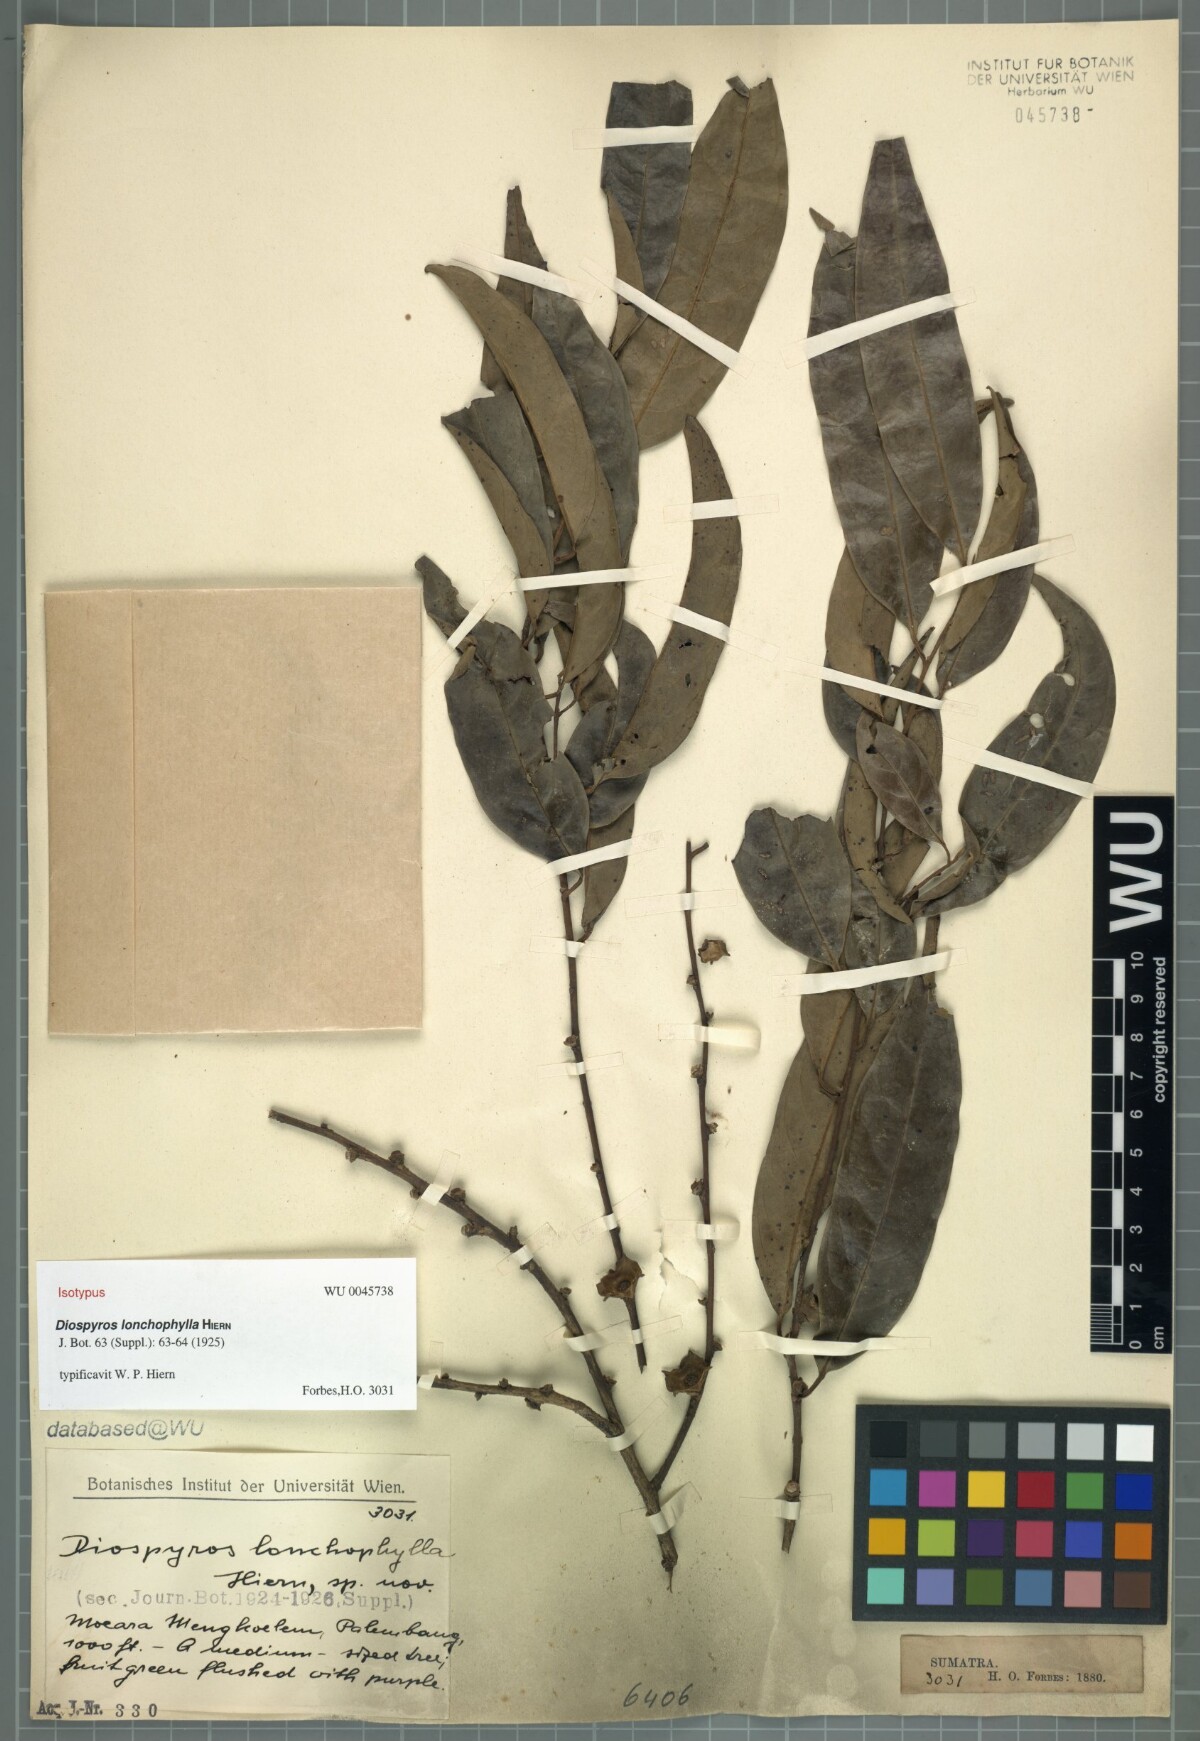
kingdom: Plantae
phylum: Tracheophyta
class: Magnoliopsida
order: Ericales
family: Ebenaceae
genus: Diospyros
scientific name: Diospyros lanceifolia
